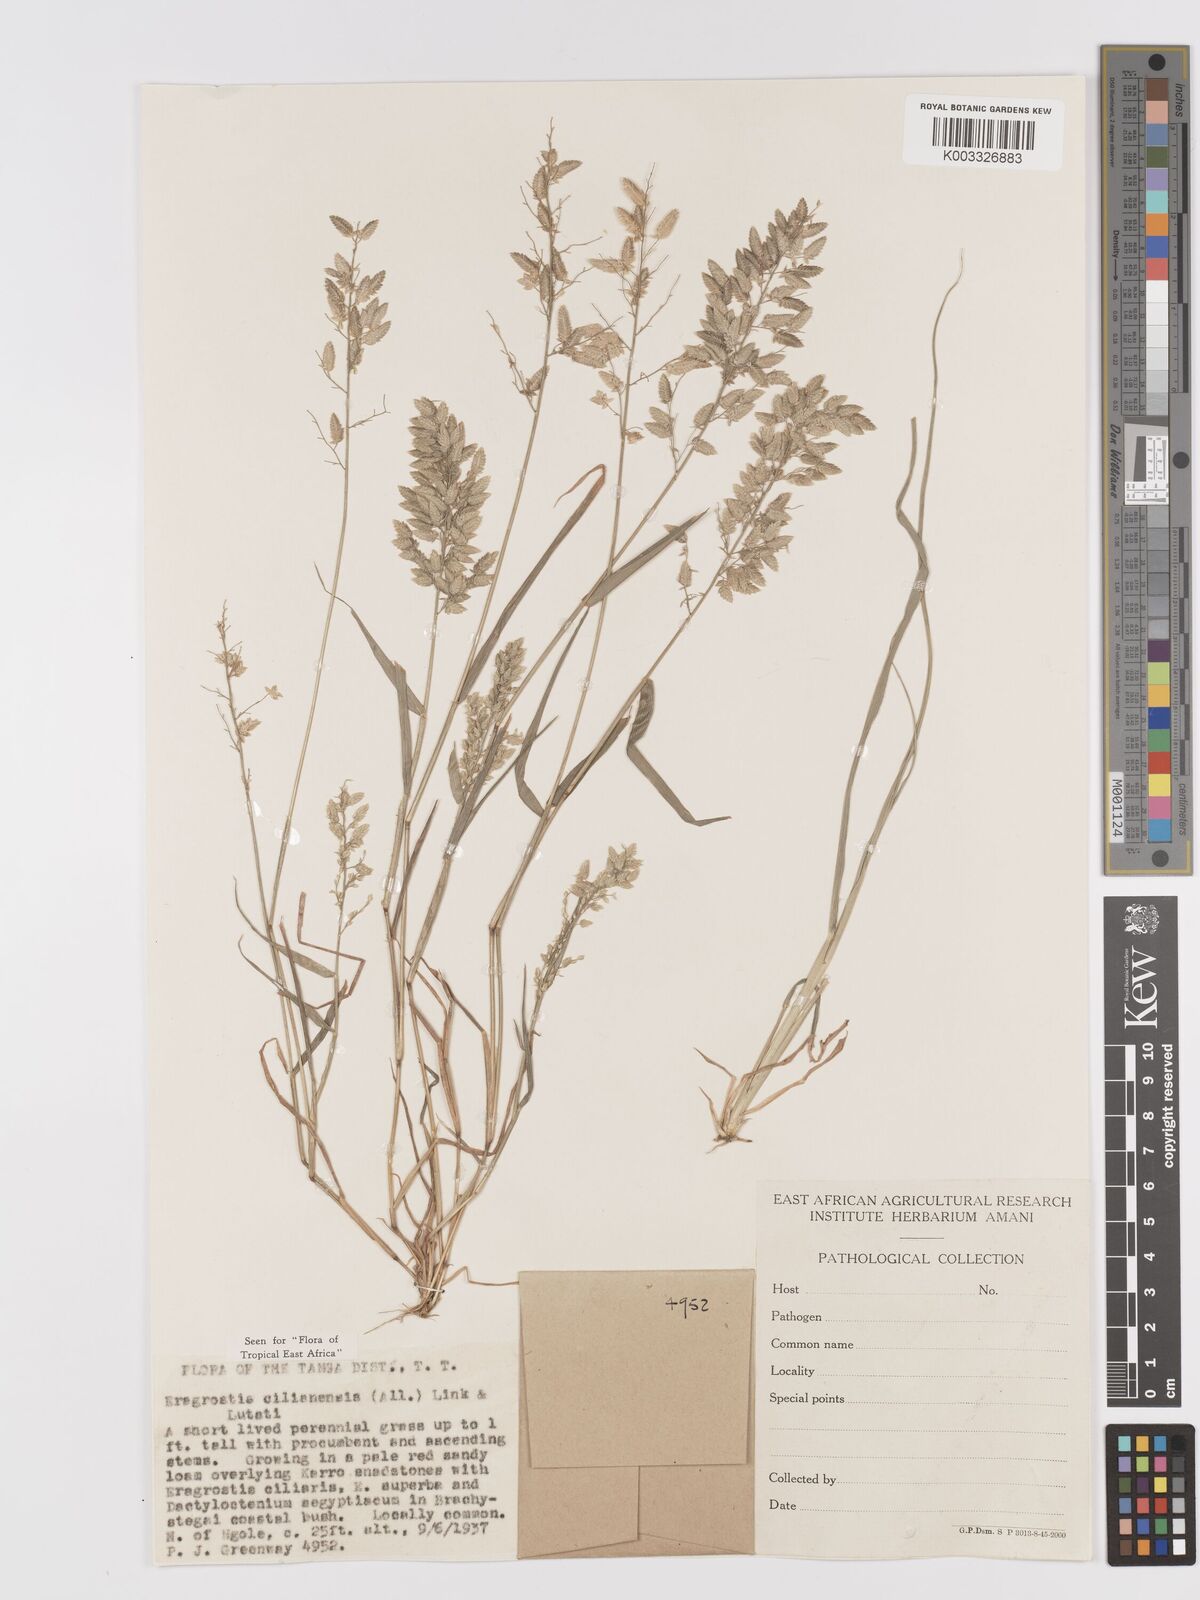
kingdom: Plantae
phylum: Tracheophyta
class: Liliopsida
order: Poales
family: Poaceae
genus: Eragrostis
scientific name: Eragrostis cilianensis
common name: Stinkgrass
